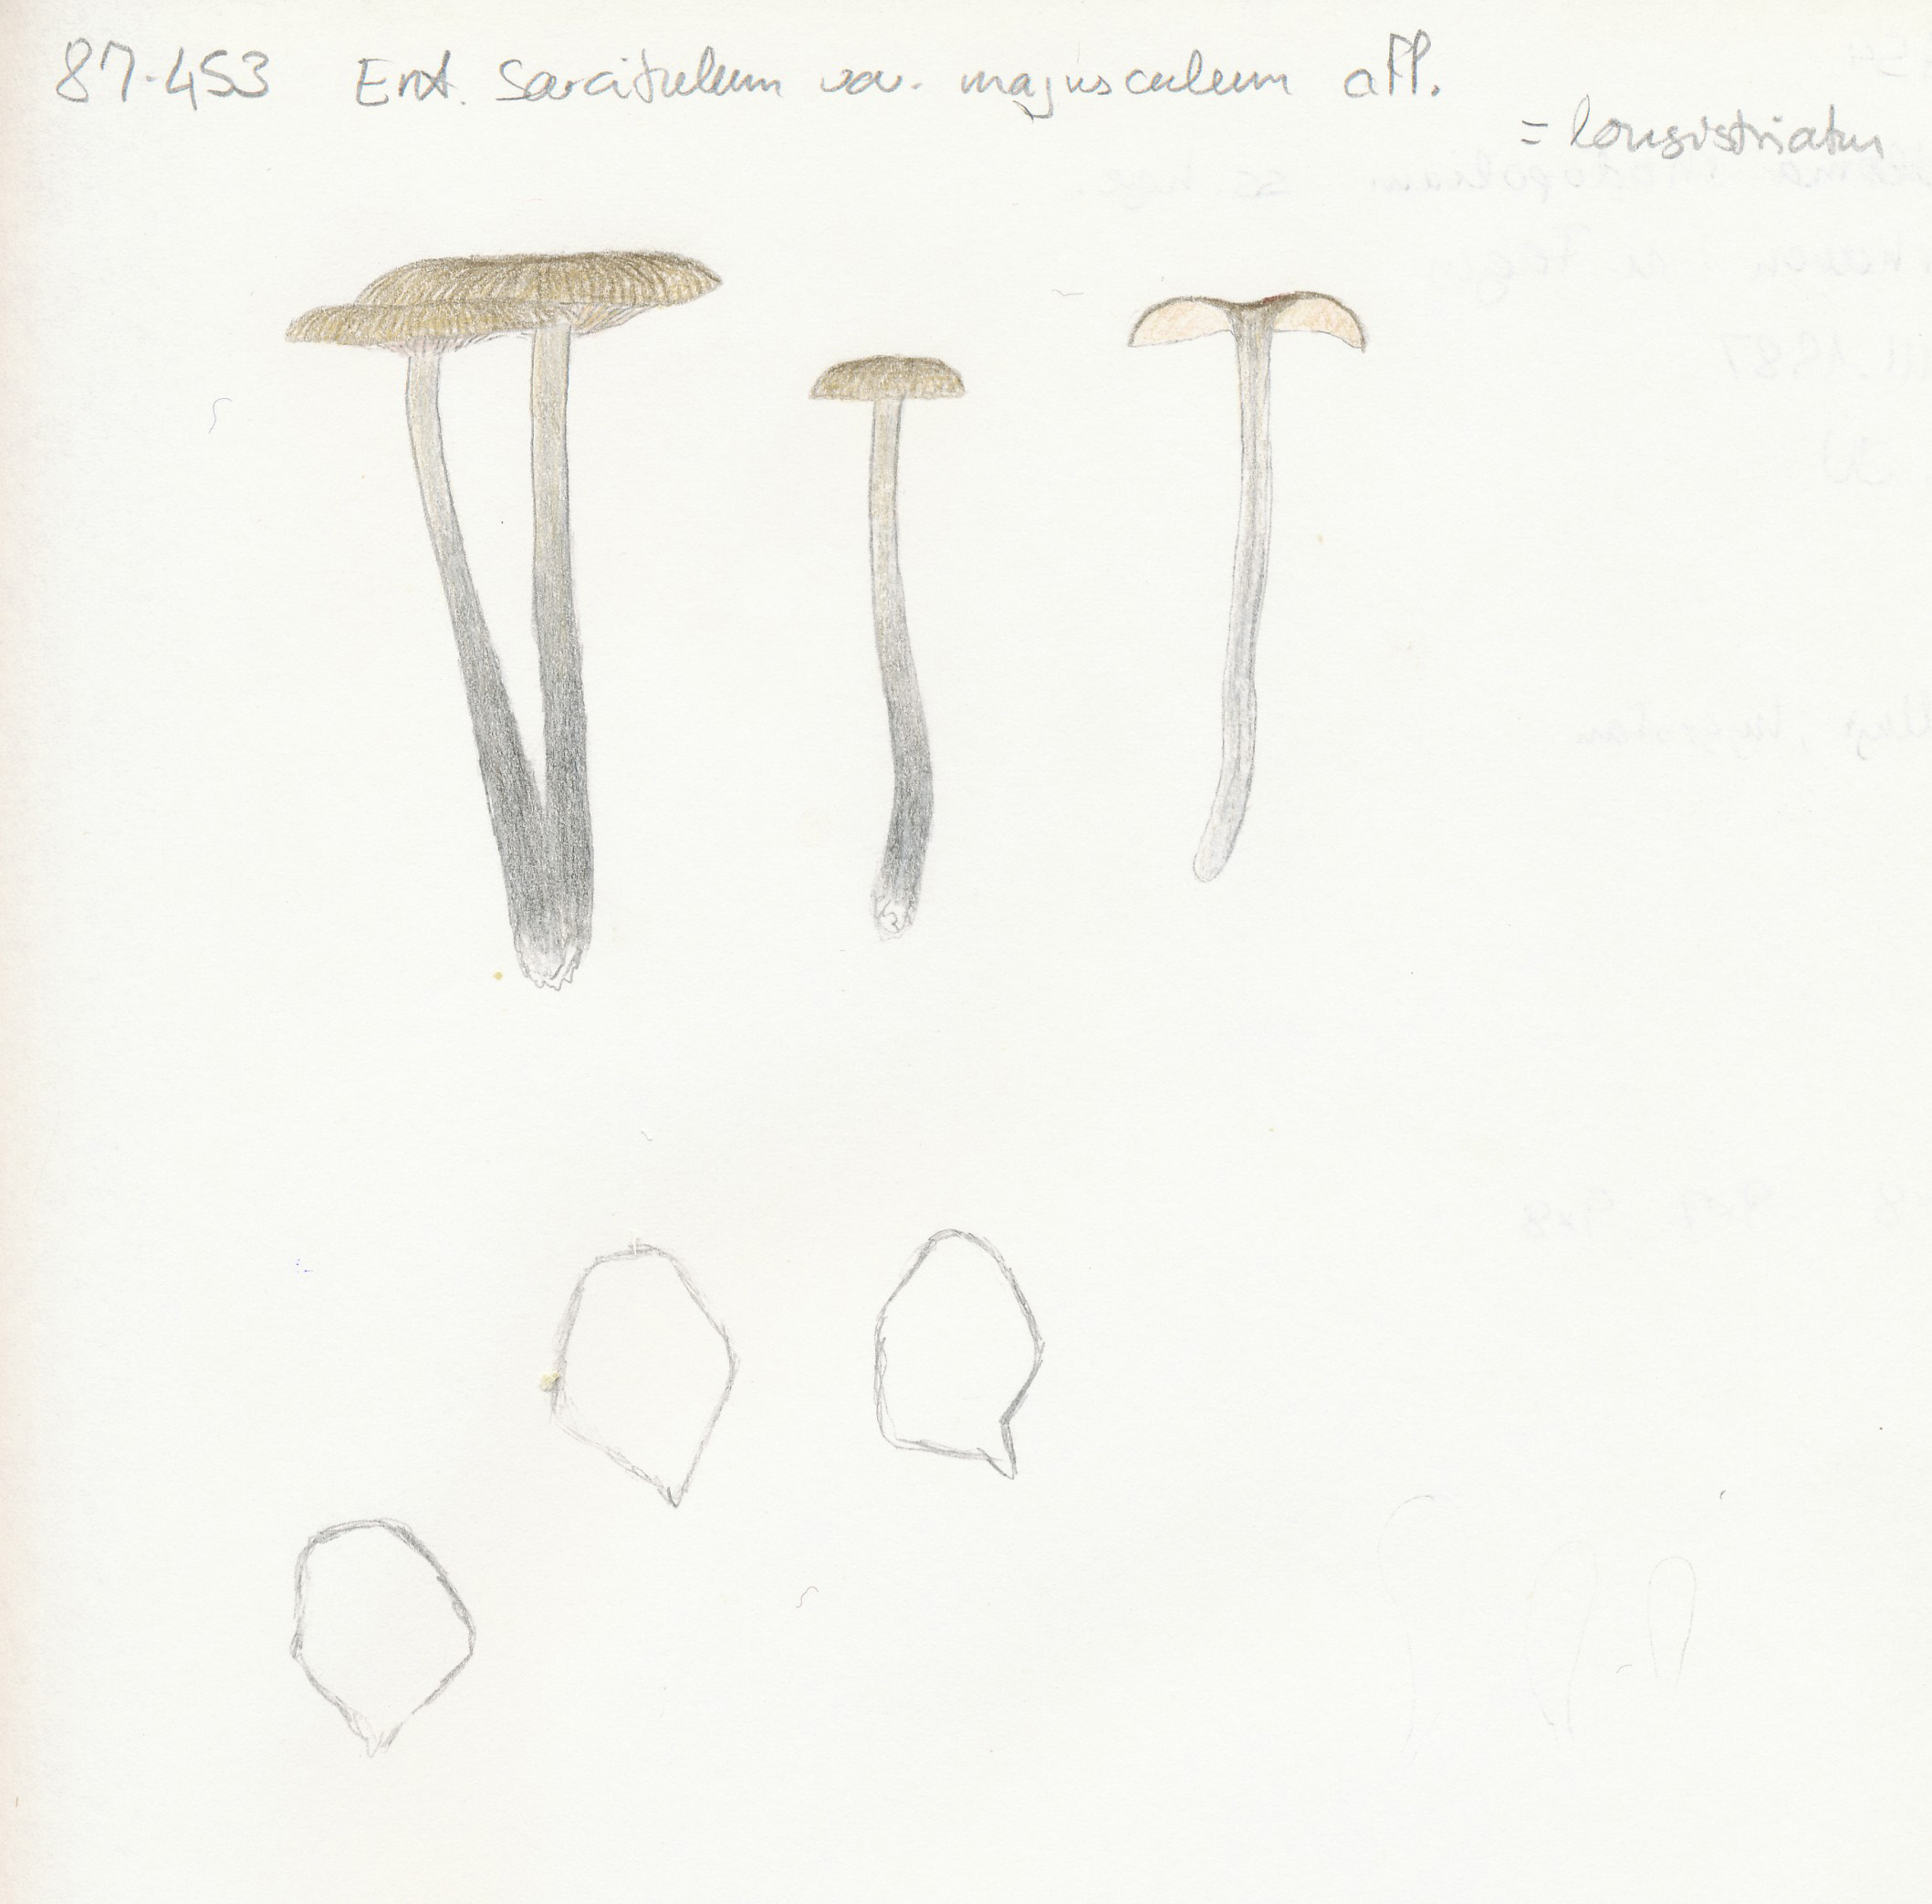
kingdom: Fungi
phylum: Basidiomycota
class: Agaricomycetes
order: Agaricales
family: Entolomataceae
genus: Entoloma
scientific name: Entoloma
